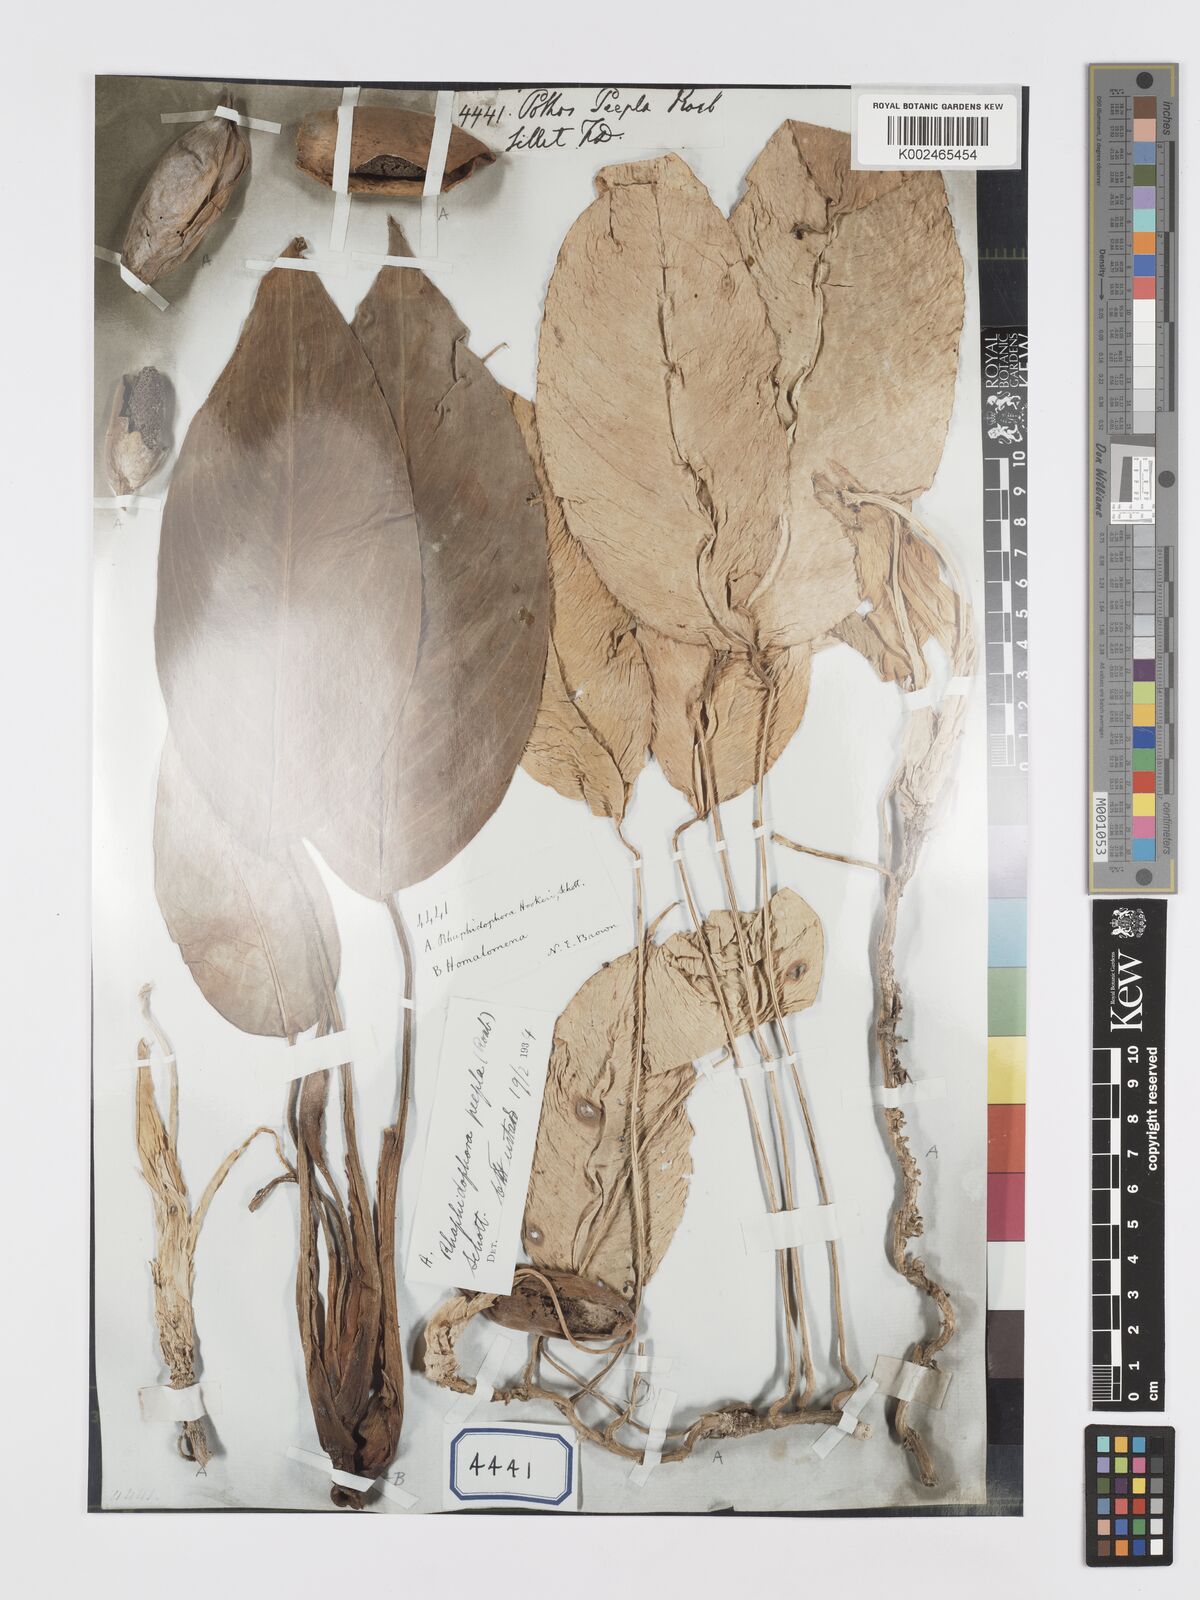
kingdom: Plantae
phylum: Tracheophyta
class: Liliopsida
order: Alismatales
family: Araceae
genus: Rhaphidophora
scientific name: Rhaphidophora hookeri
